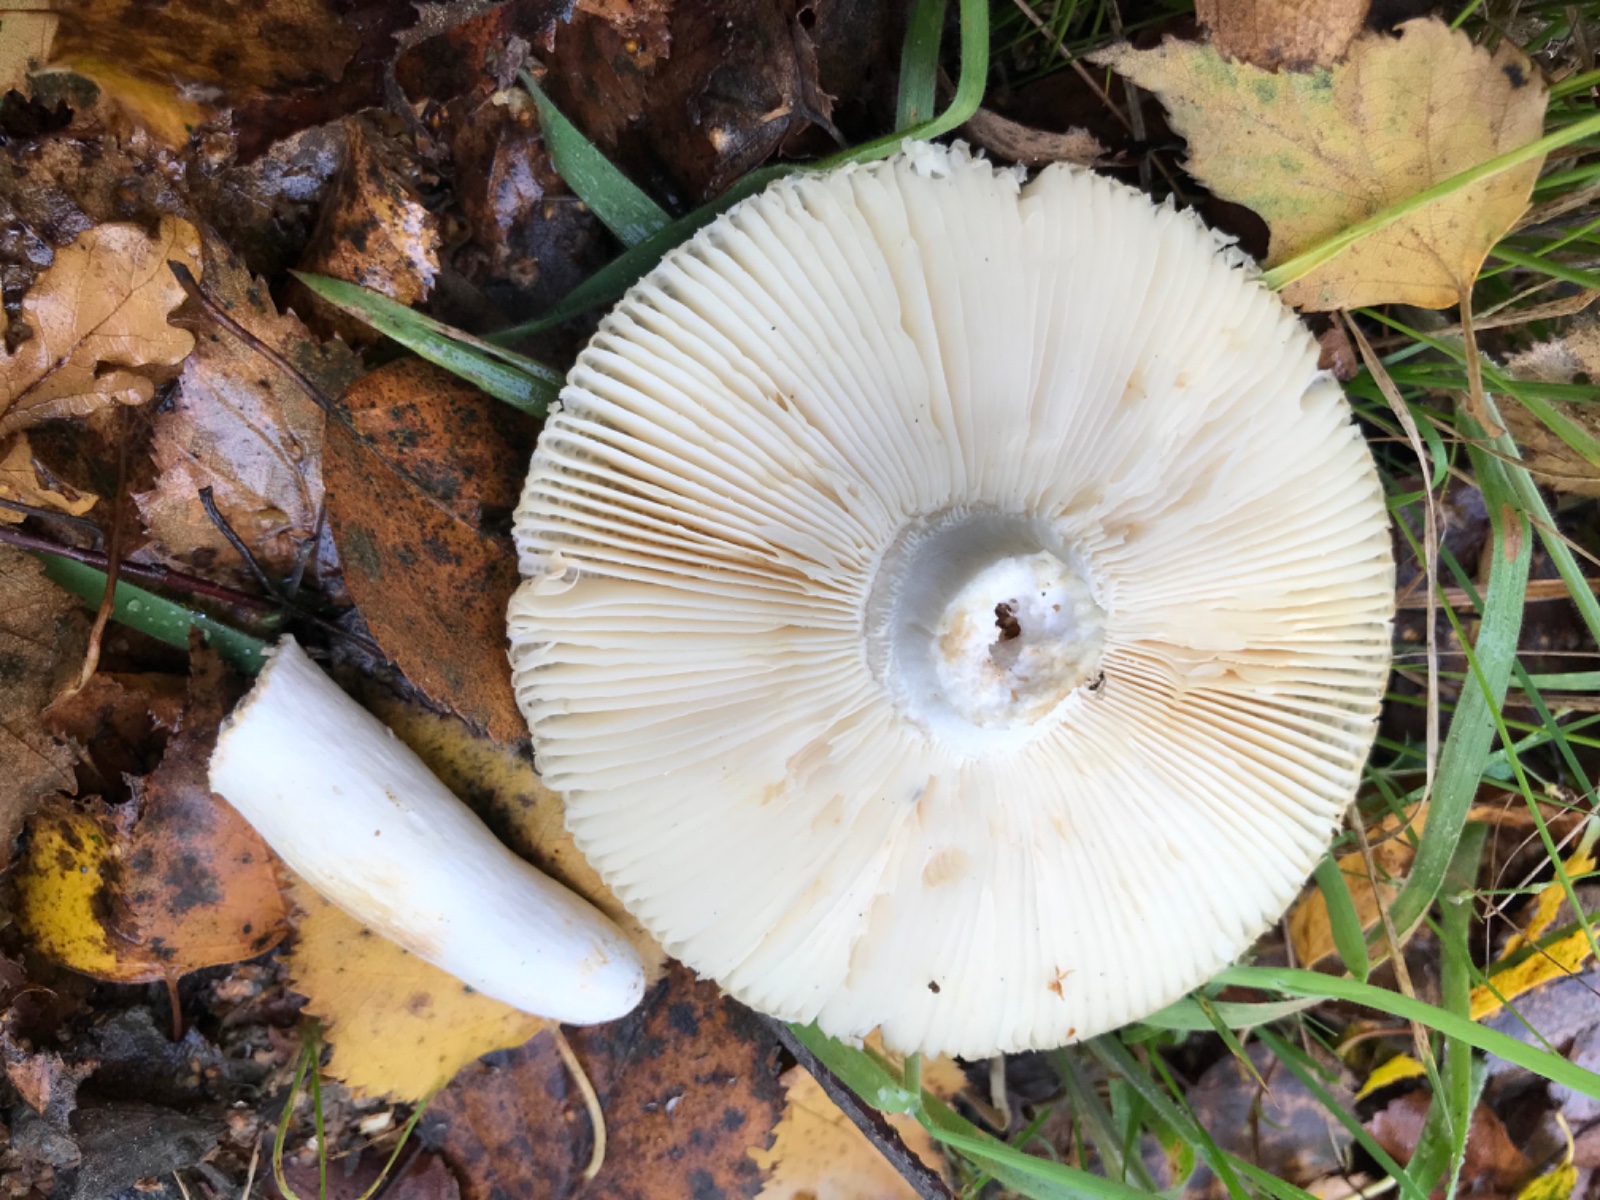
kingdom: Fungi
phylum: Basidiomycota
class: Agaricomycetes
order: Russulales
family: Russulaceae
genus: Russula
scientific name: Russula aeruginea
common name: græsgrøn skørhat
